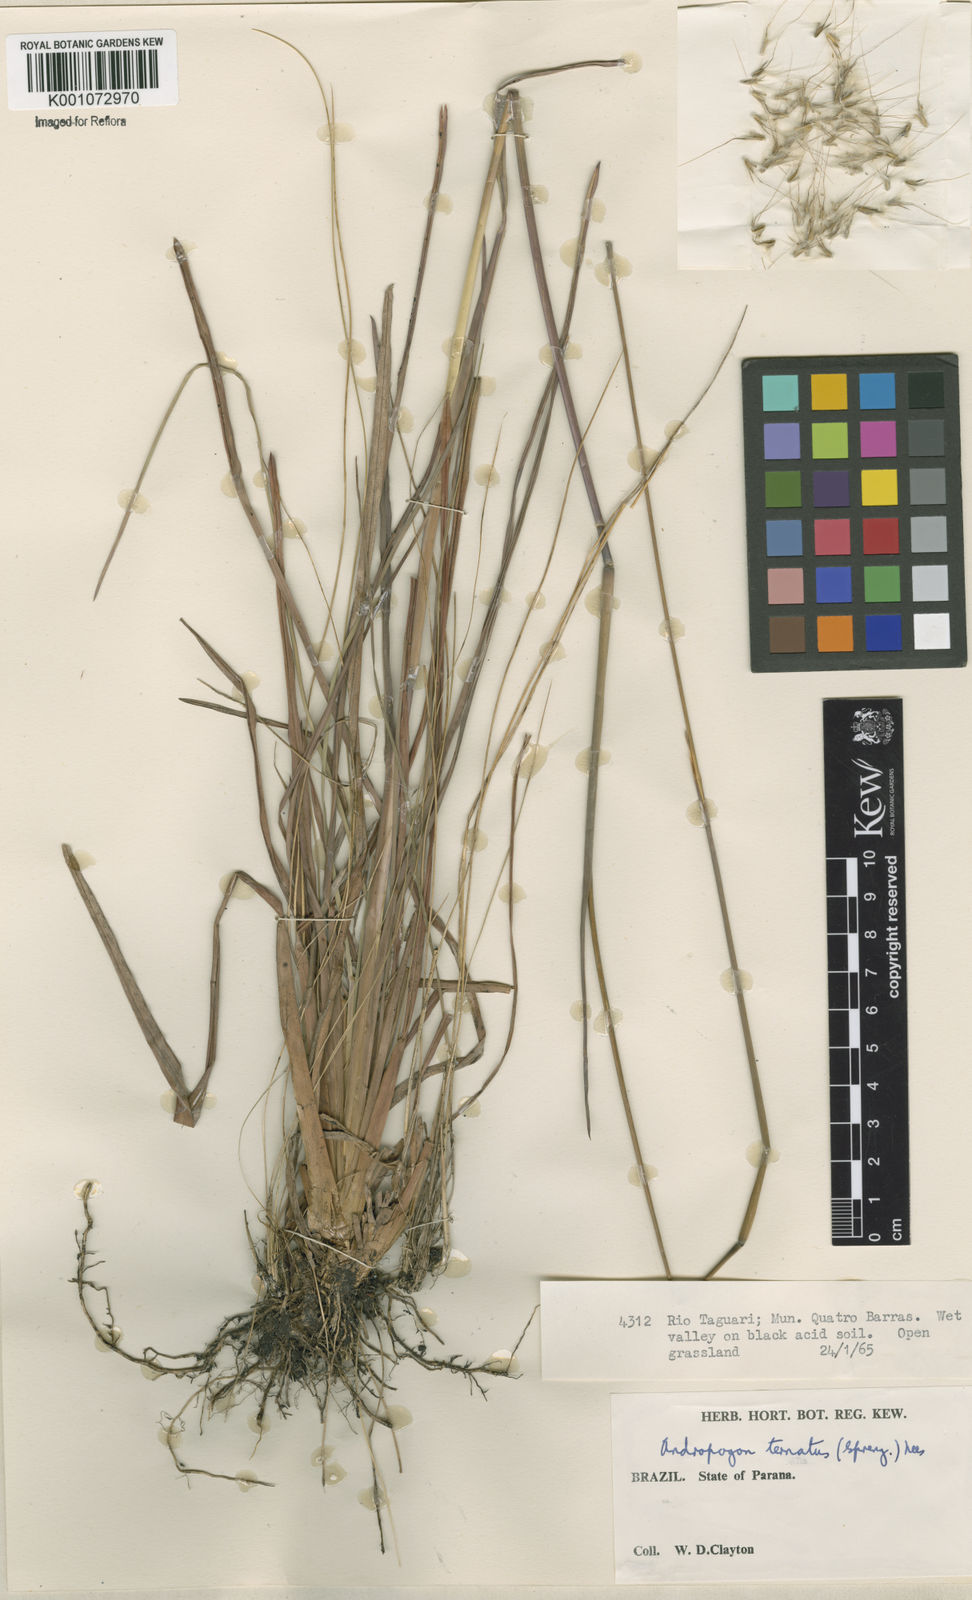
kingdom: Plantae
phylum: Tracheophyta
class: Liliopsida
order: Poales
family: Poaceae
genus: Andropogon
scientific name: Andropogon macrothrix
